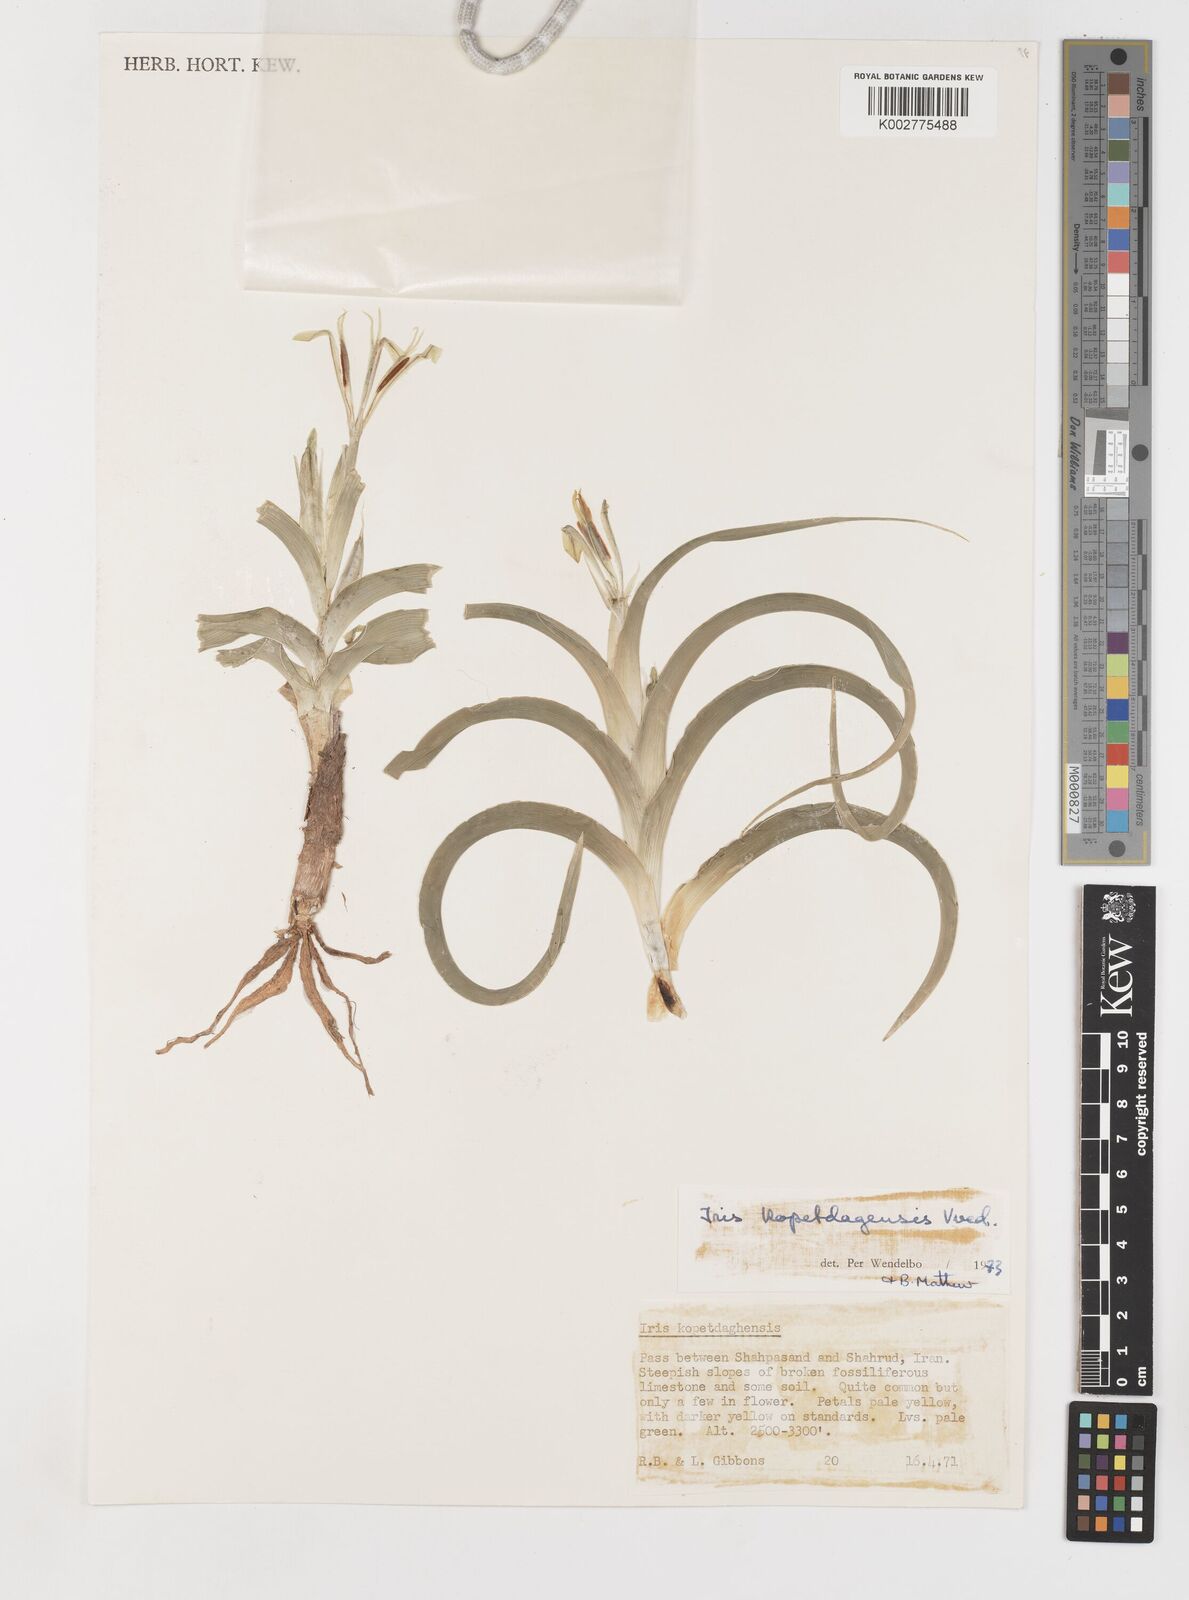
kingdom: Plantae
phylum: Tracheophyta
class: Liliopsida
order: Asparagales
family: Iridaceae
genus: Iris
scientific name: Iris kopetdagensis
